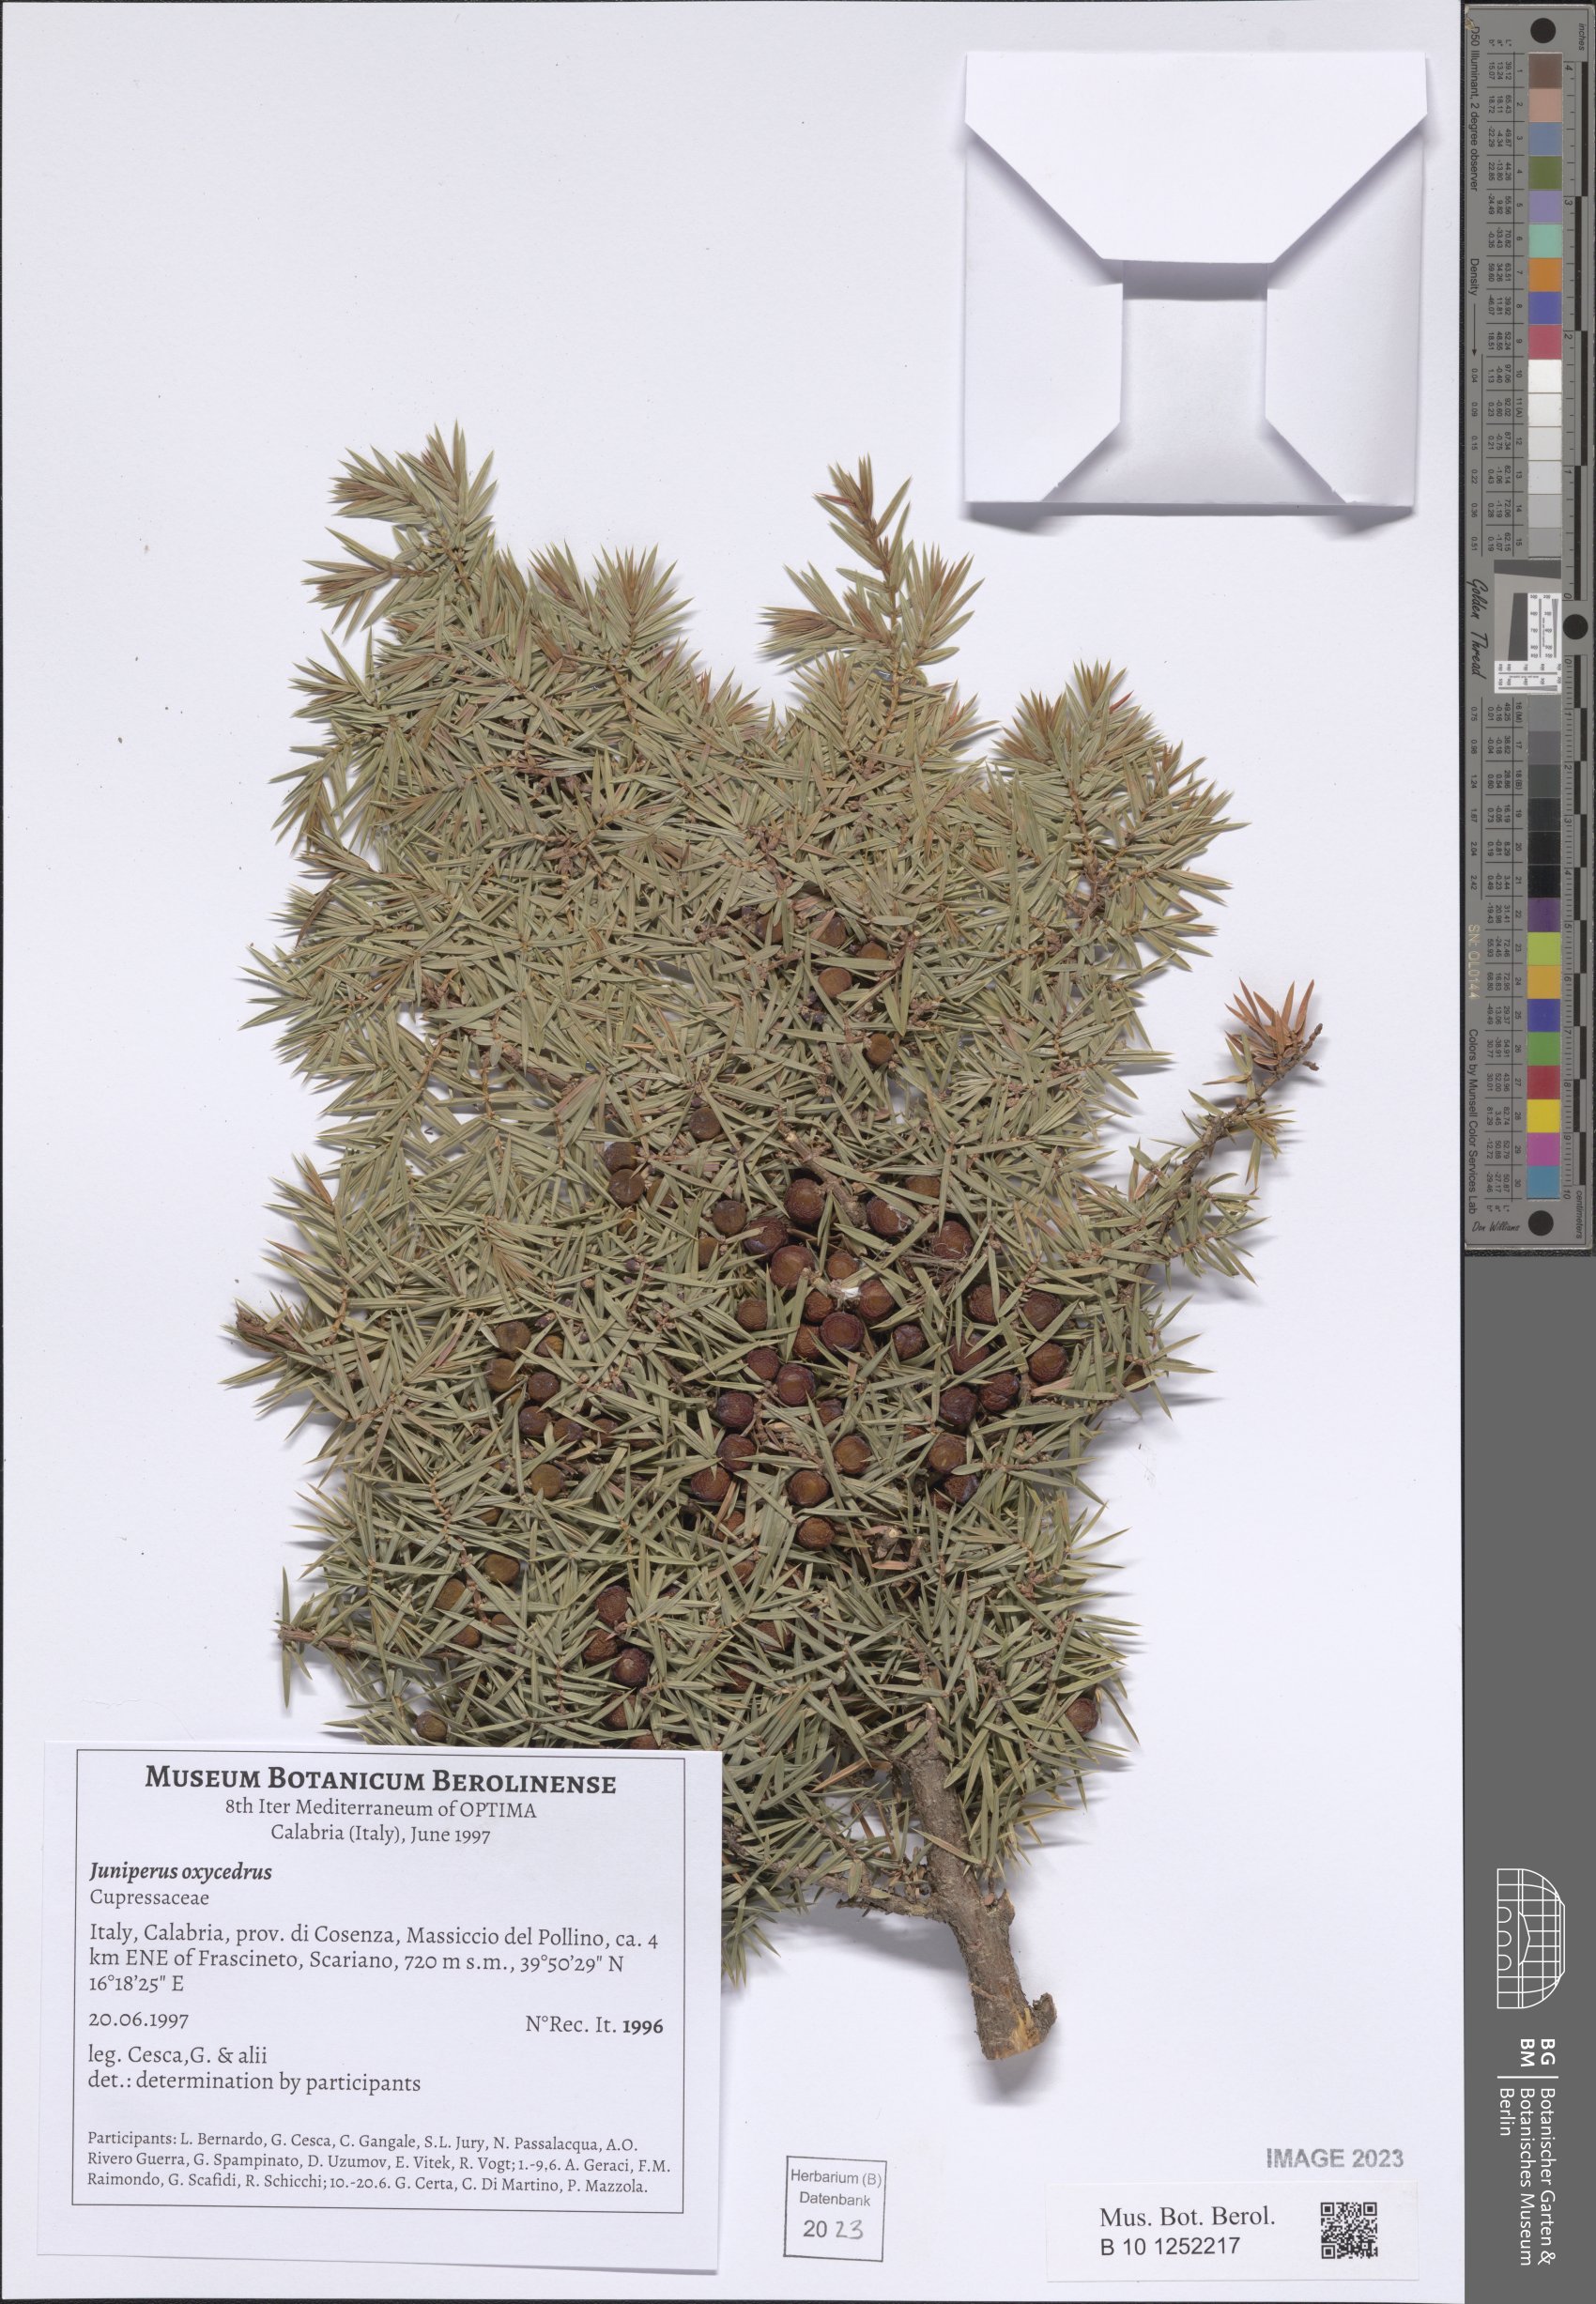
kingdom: Plantae
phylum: Tracheophyta
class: Pinopsida
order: Pinales
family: Cupressaceae
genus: Juniperus
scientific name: Juniperus oxycedrus
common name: Prickly juniper
